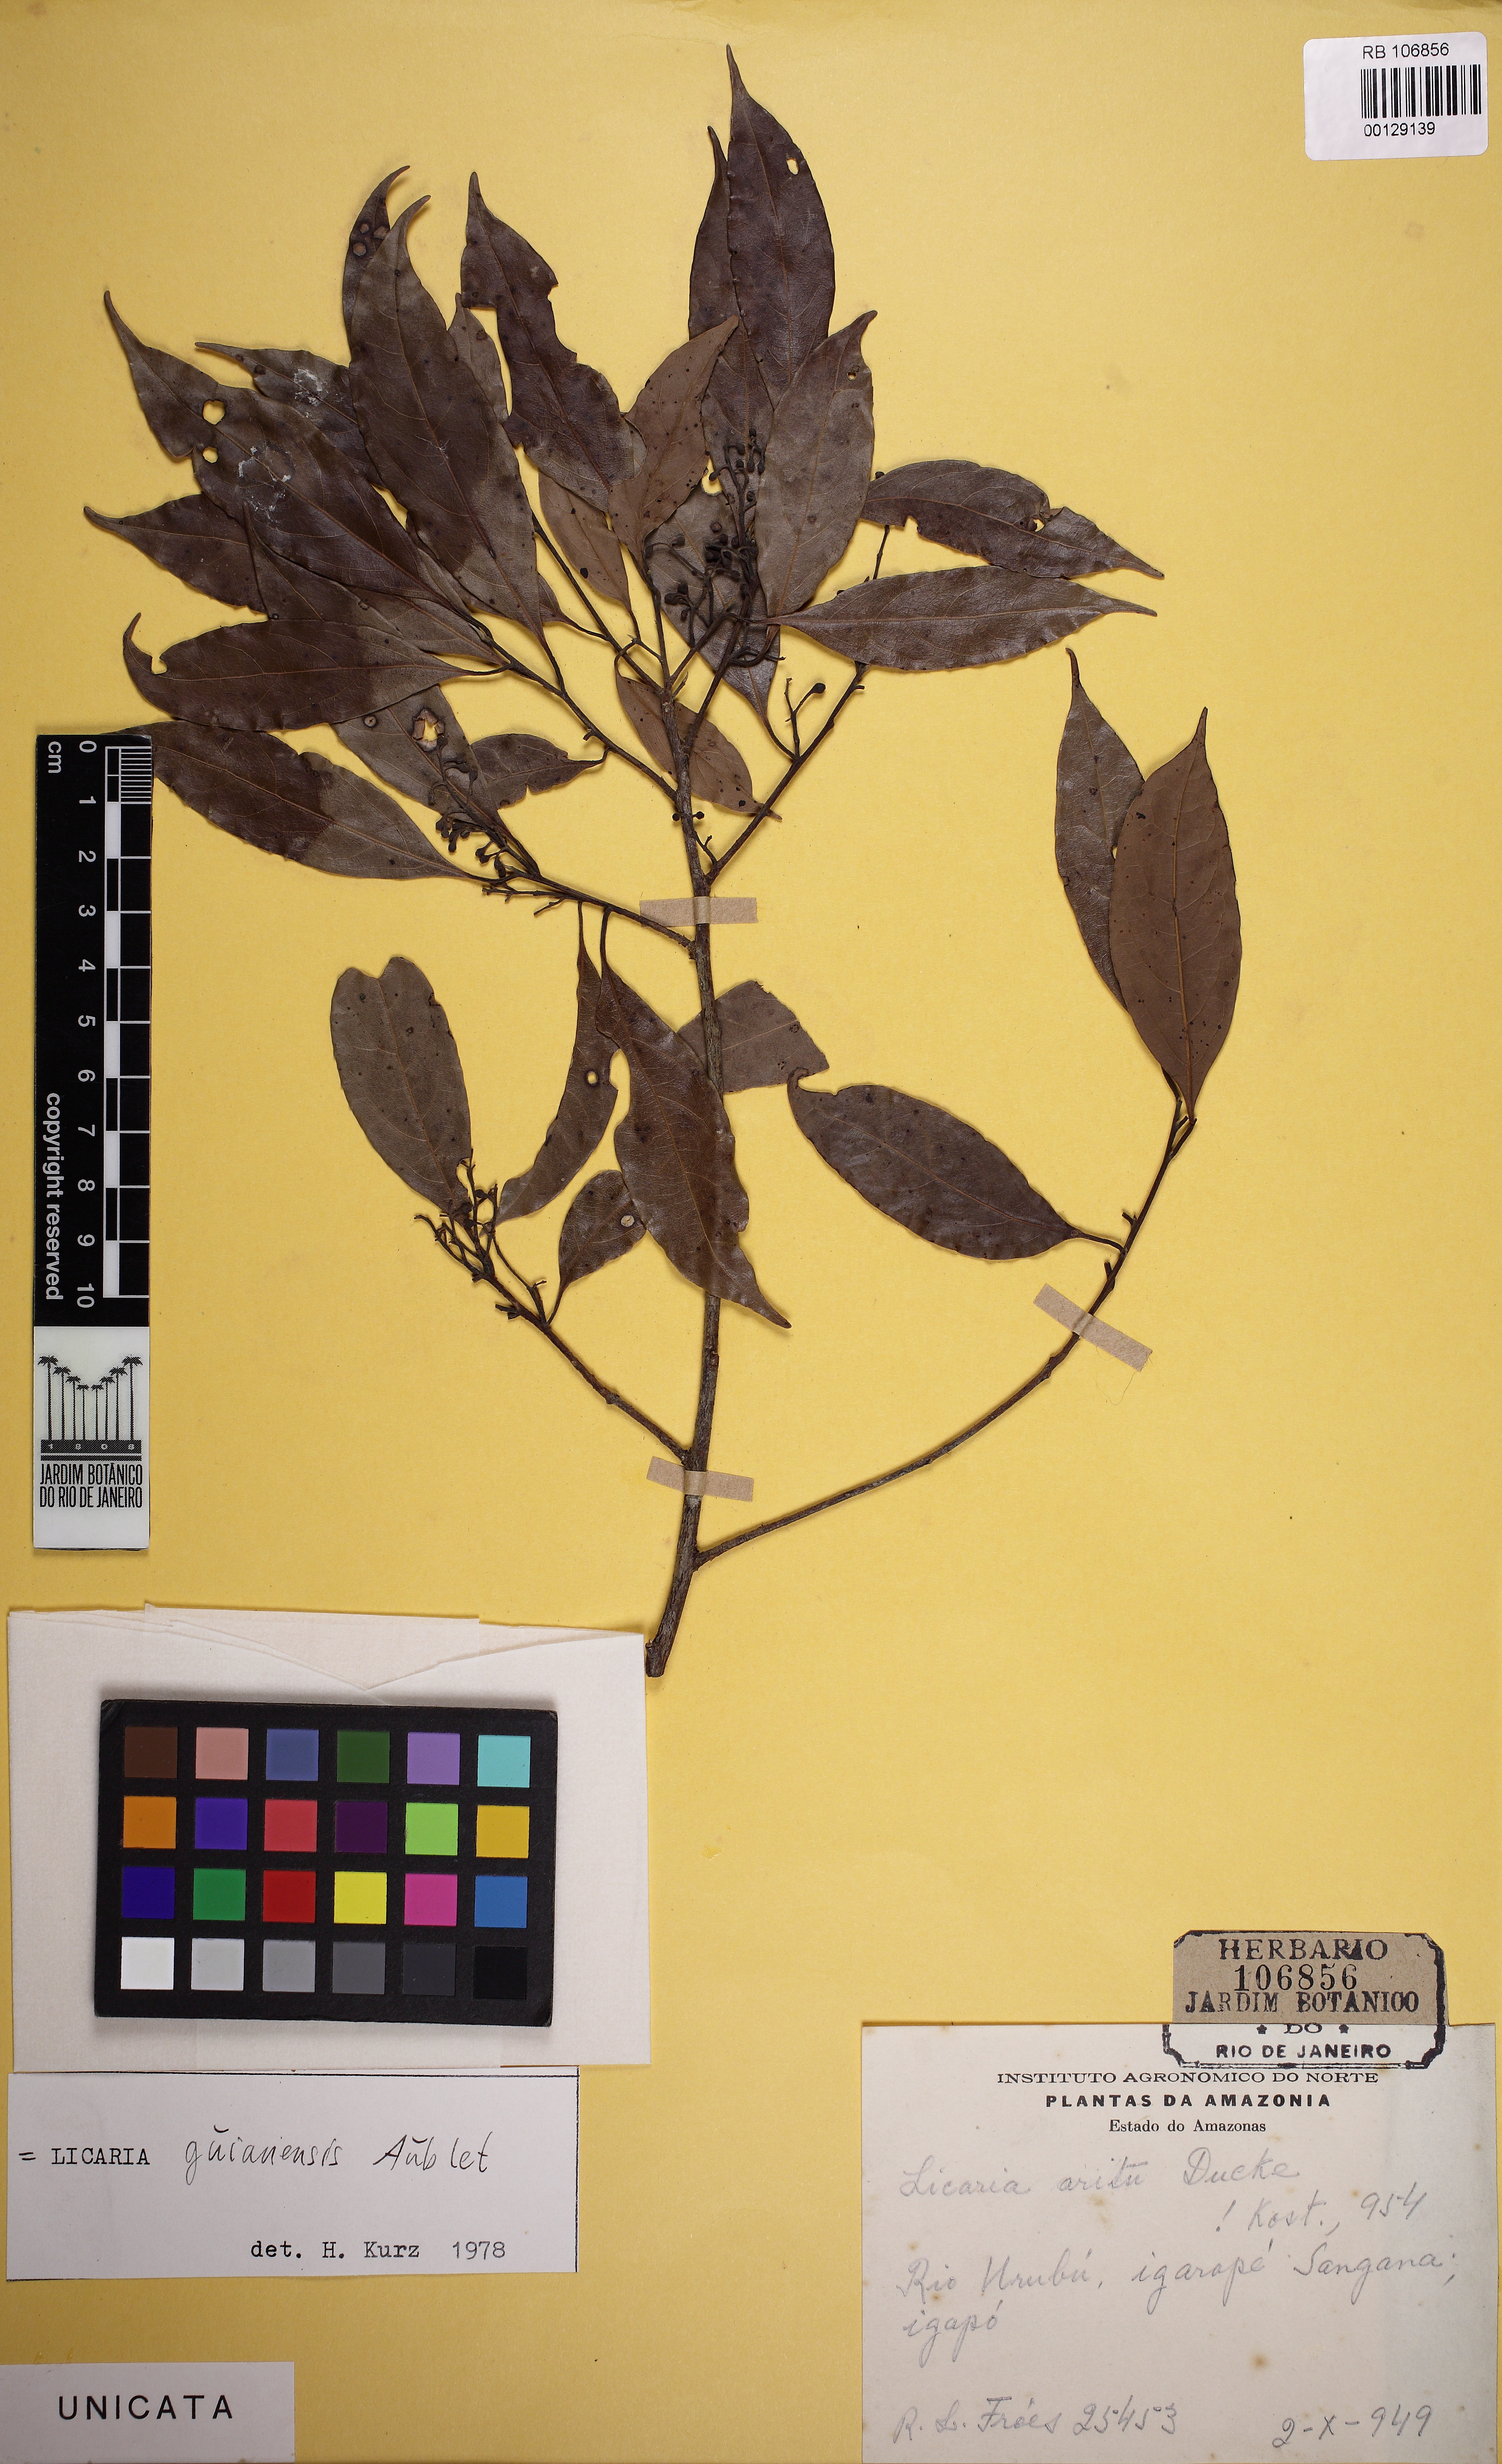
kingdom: Plantae
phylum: Tracheophyta
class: Magnoliopsida
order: Laurales
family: Lauraceae
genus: Licaria
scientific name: Licaria guianensis
